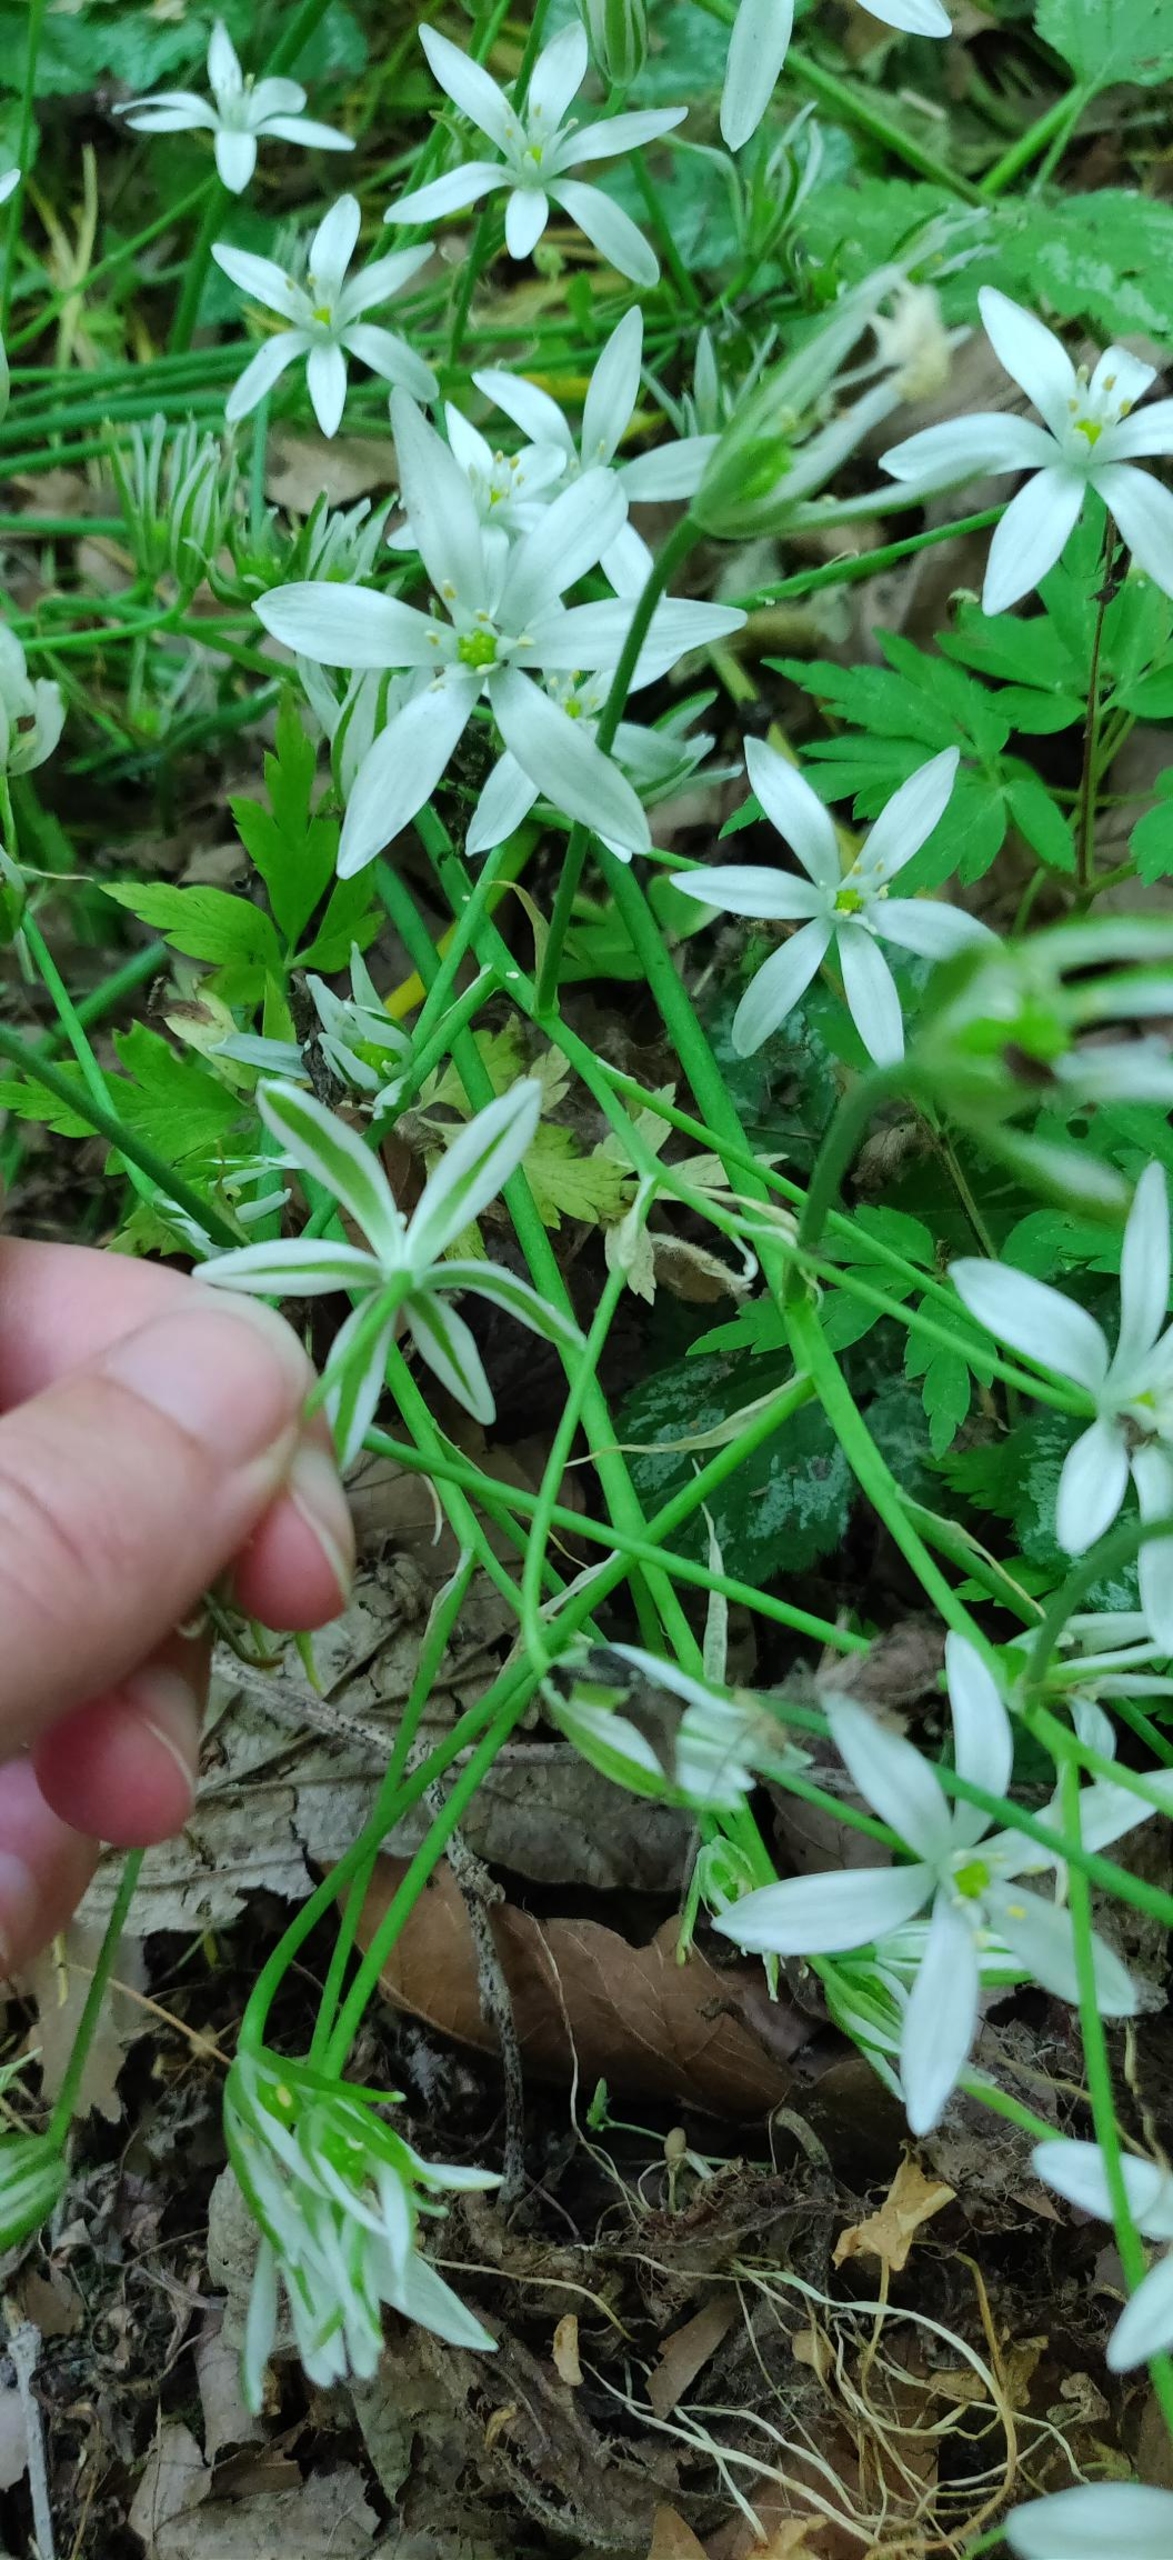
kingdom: Plantae
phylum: Tracheophyta
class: Liliopsida
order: Asparagales
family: Asparagaceae
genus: Ornithogalum
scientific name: Ornithogalum umbellatum
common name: Kost-fuglemælk
